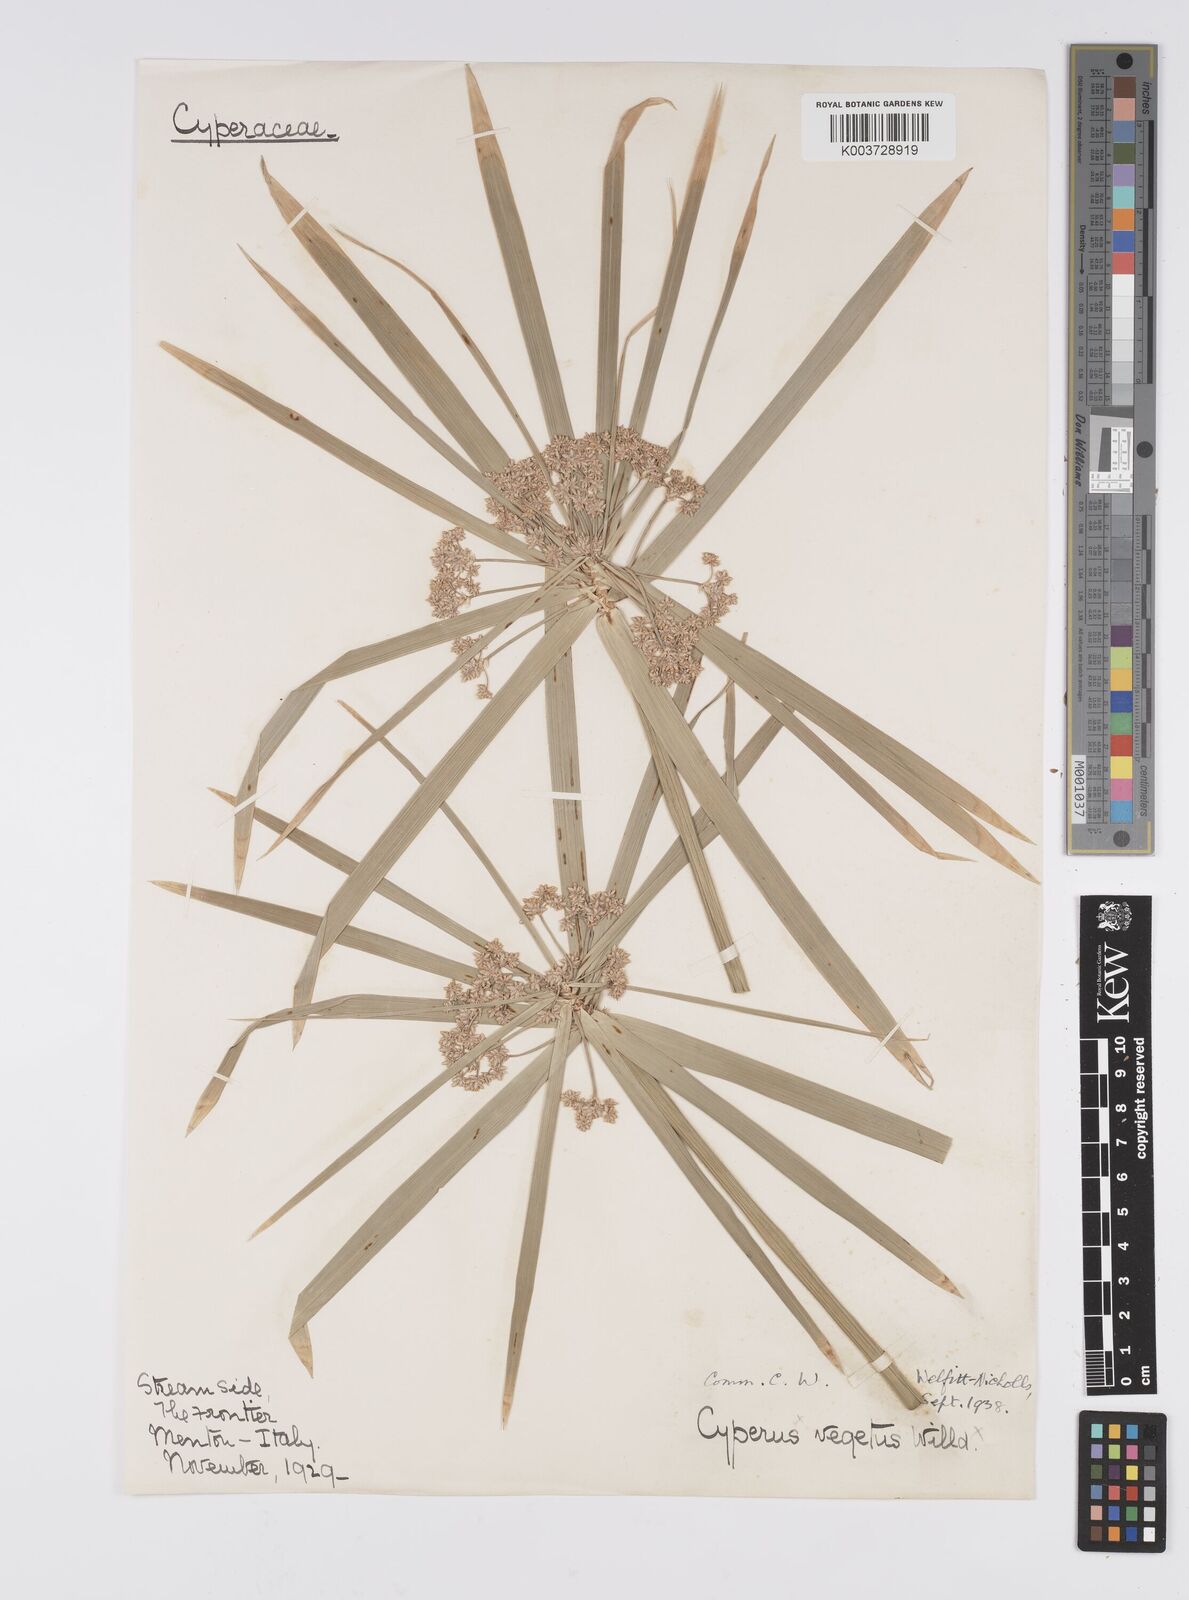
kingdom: Plantae
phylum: Tracheophyta
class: Liliopsida
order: Poales
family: Cyperaceae
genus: Cyperus
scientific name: Cyperus alternifolius
